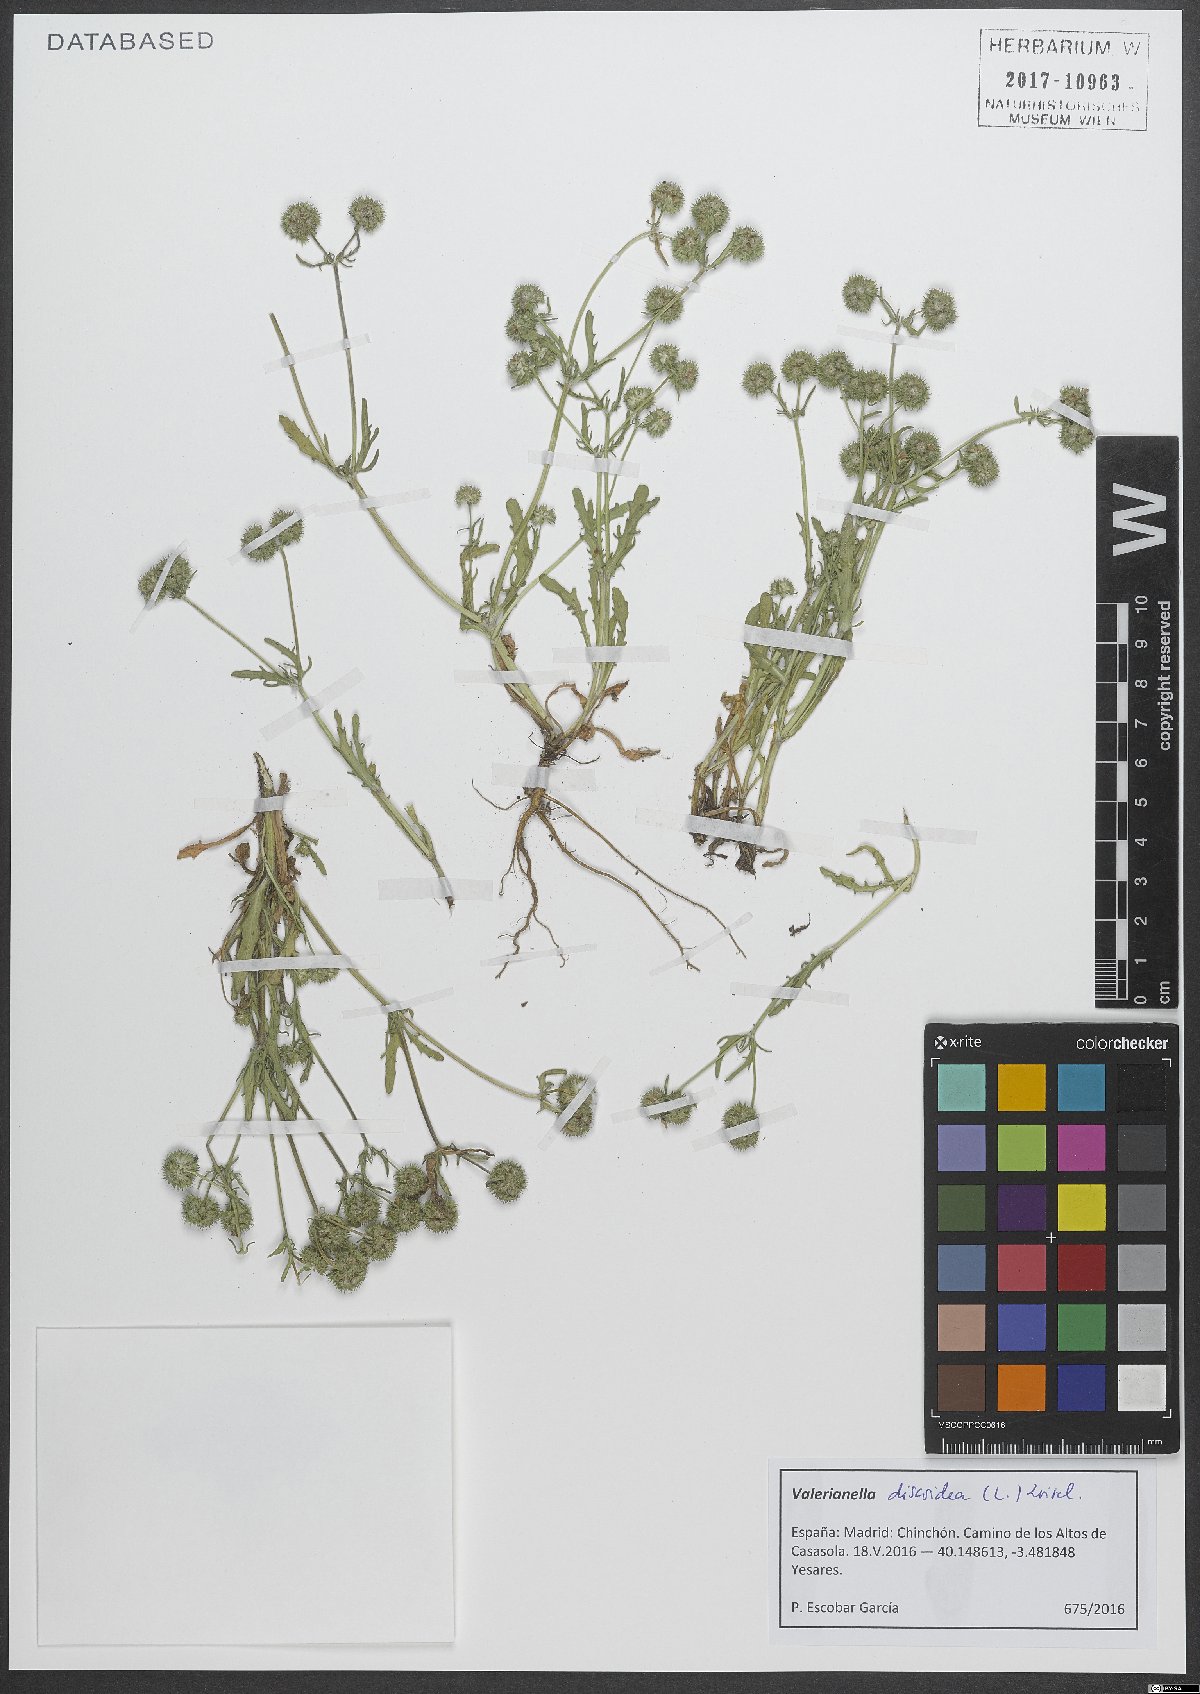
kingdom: Plantae
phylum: Tracheophyta
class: Magnoliopsida
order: Dipsacales
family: Caprifoliaceae
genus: Valerianella
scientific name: Valerianella discoidea
